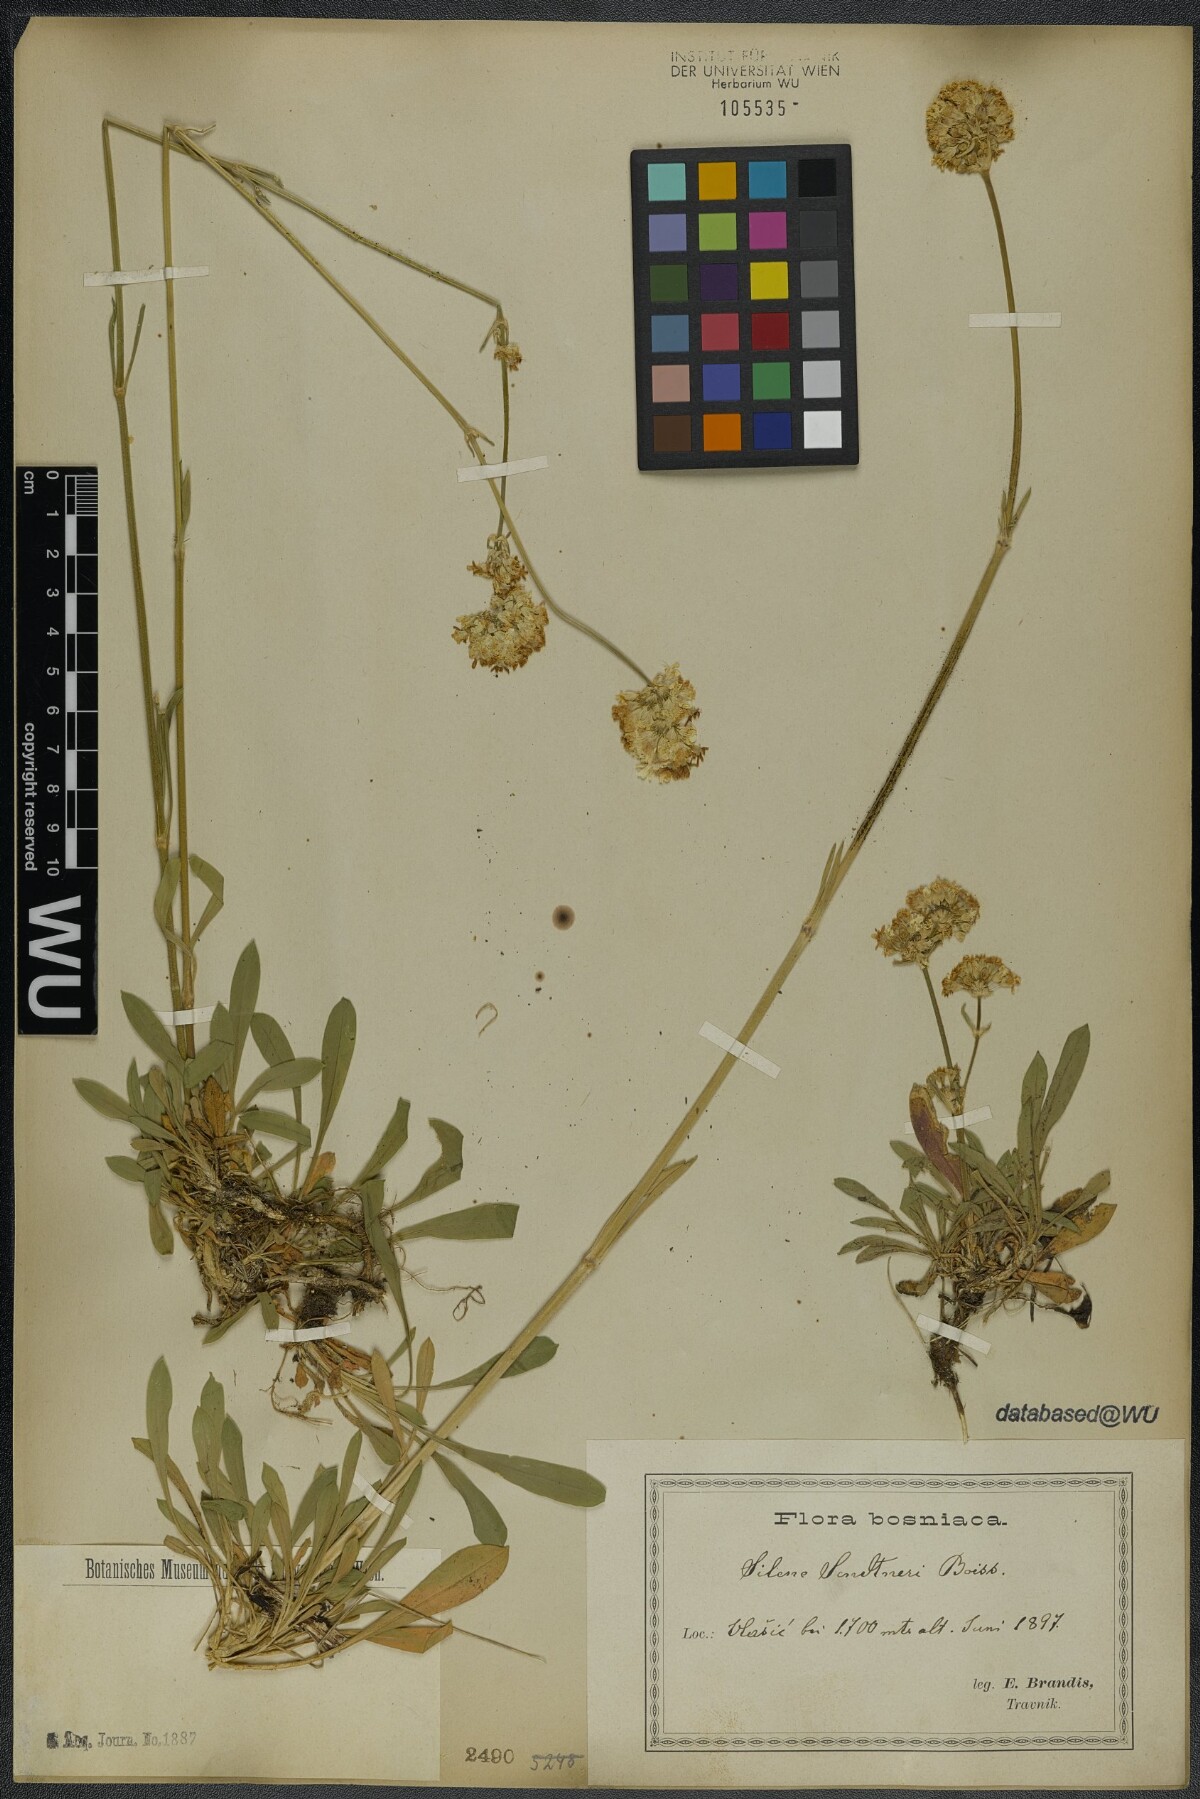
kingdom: Plantae
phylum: Tracheophyta
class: Magnoliopsida
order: Caryophyllales
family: Caryophyllaceae
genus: Silene
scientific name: Silene sendtneri
